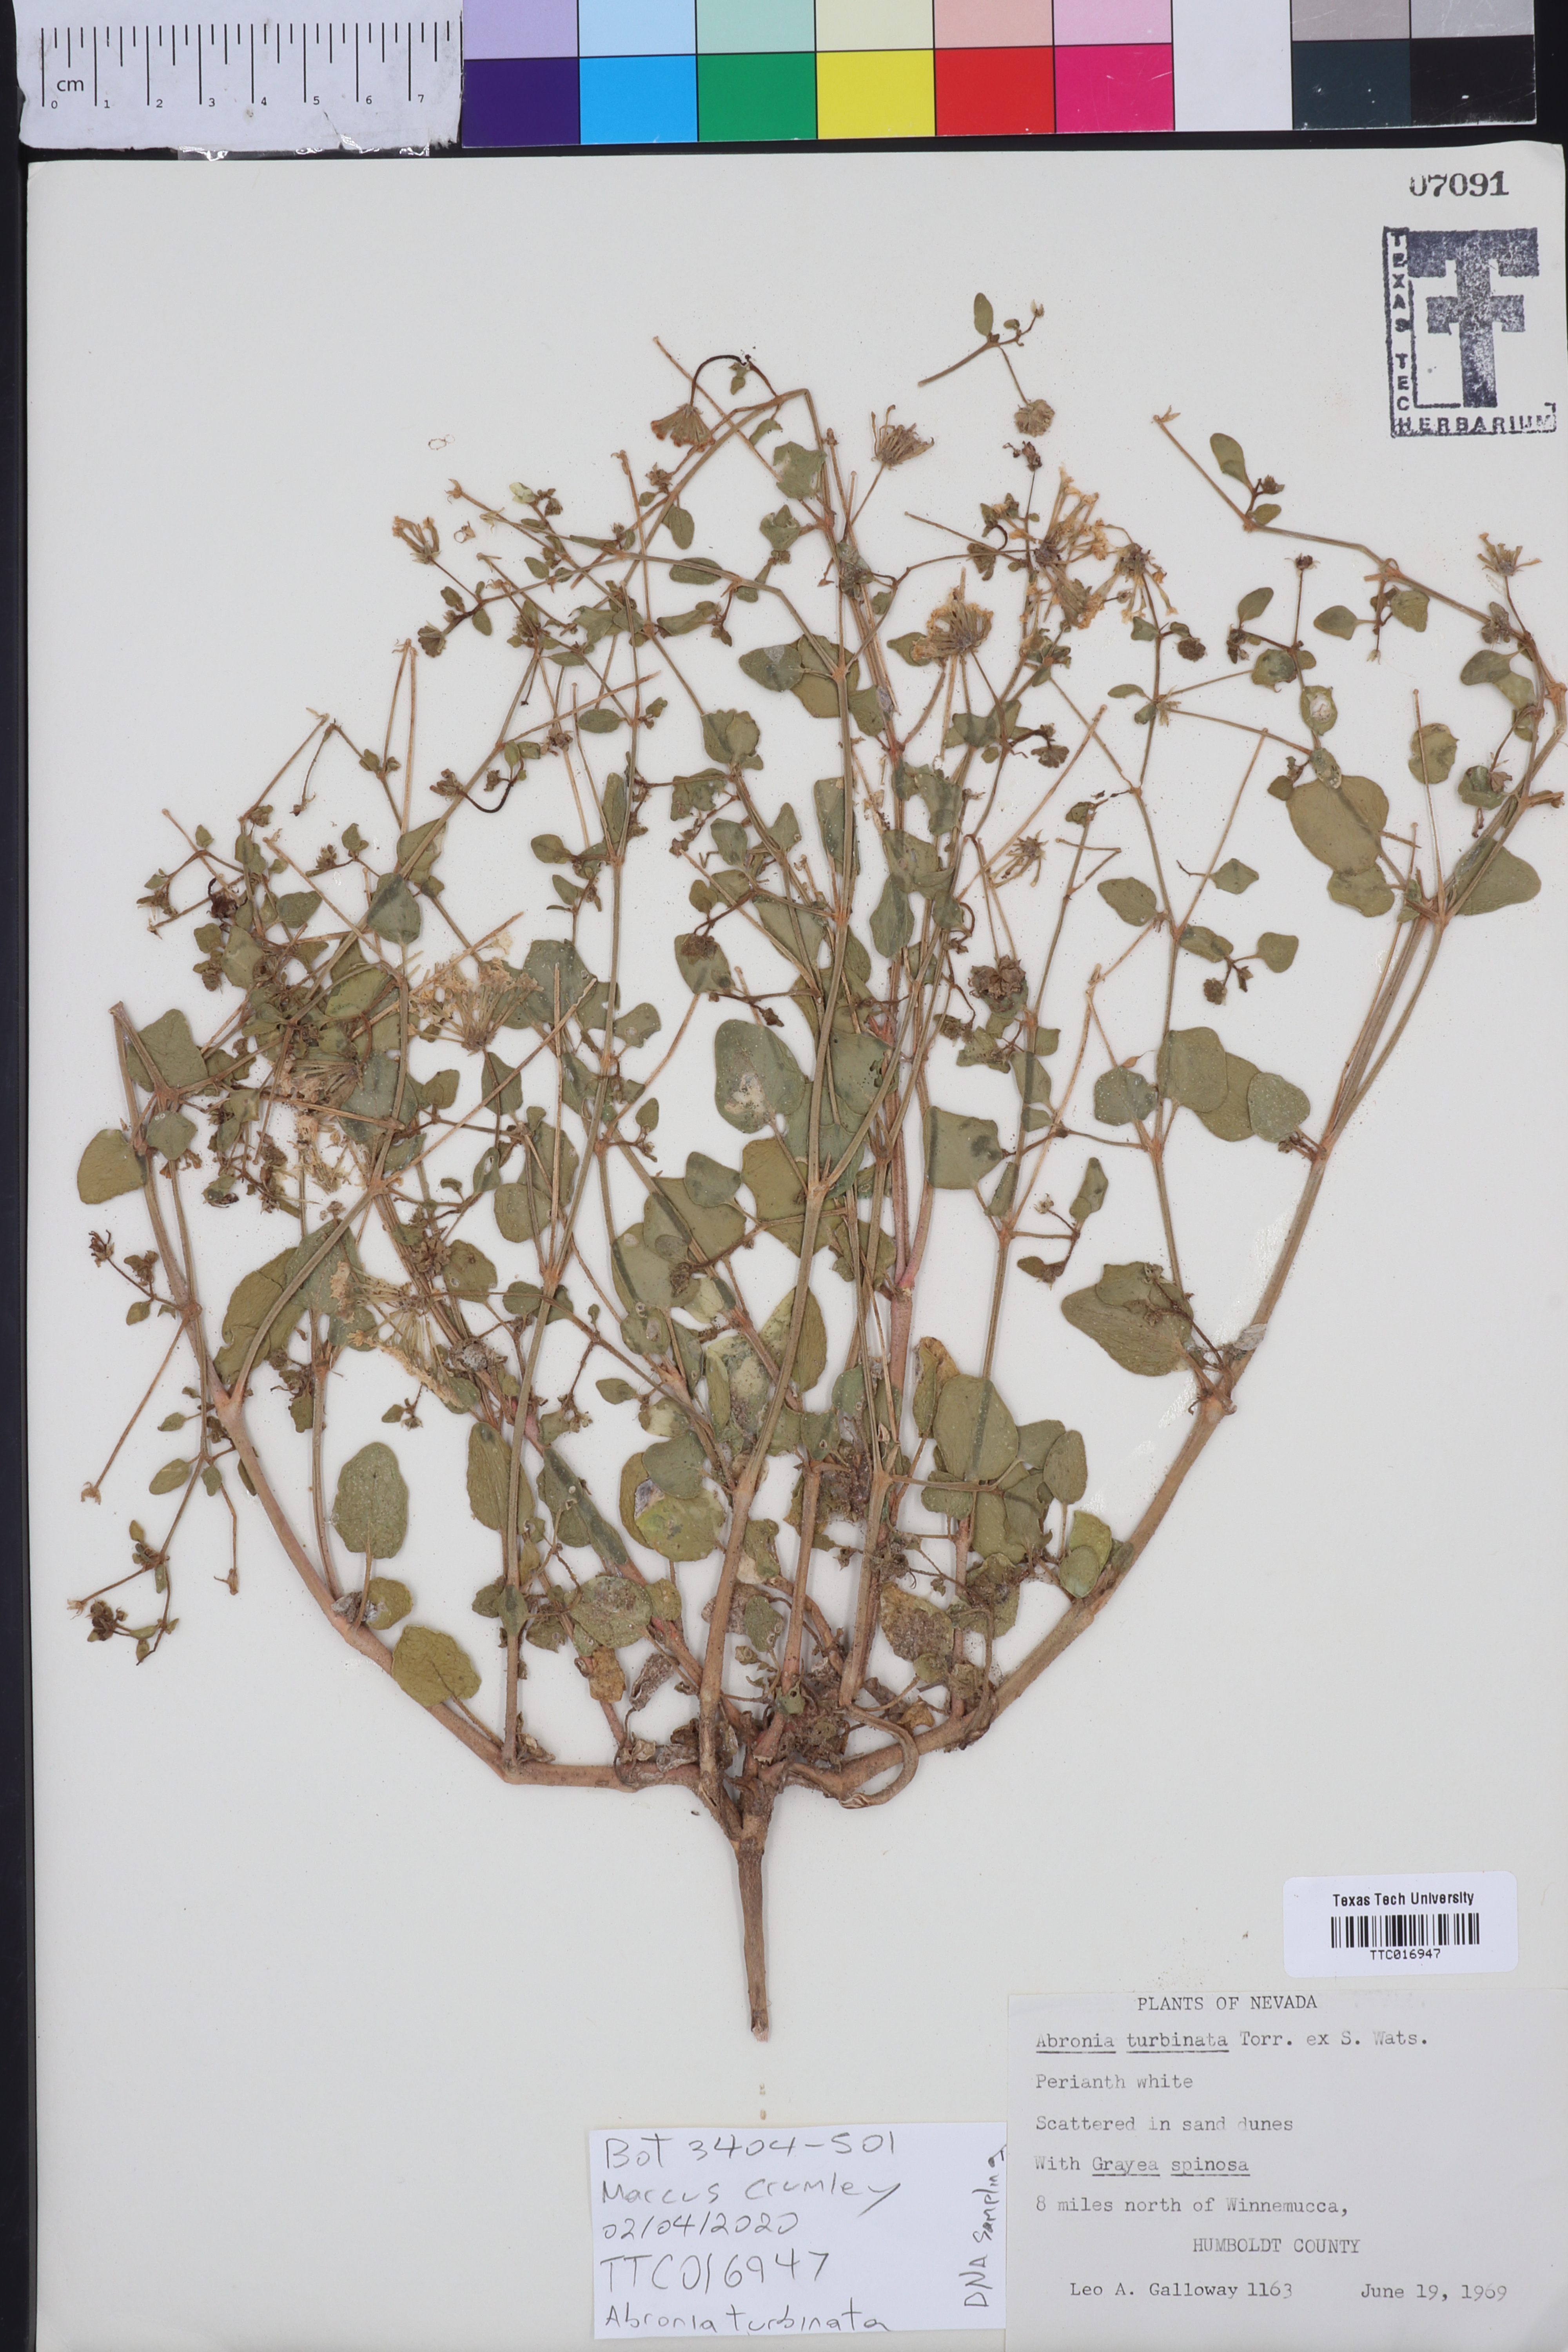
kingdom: Plantae
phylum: Tracheophyta
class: Magnoliopsida
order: Caryophyllales
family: Nyctaginaceae
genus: Abronia
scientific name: Abronia turbinata
